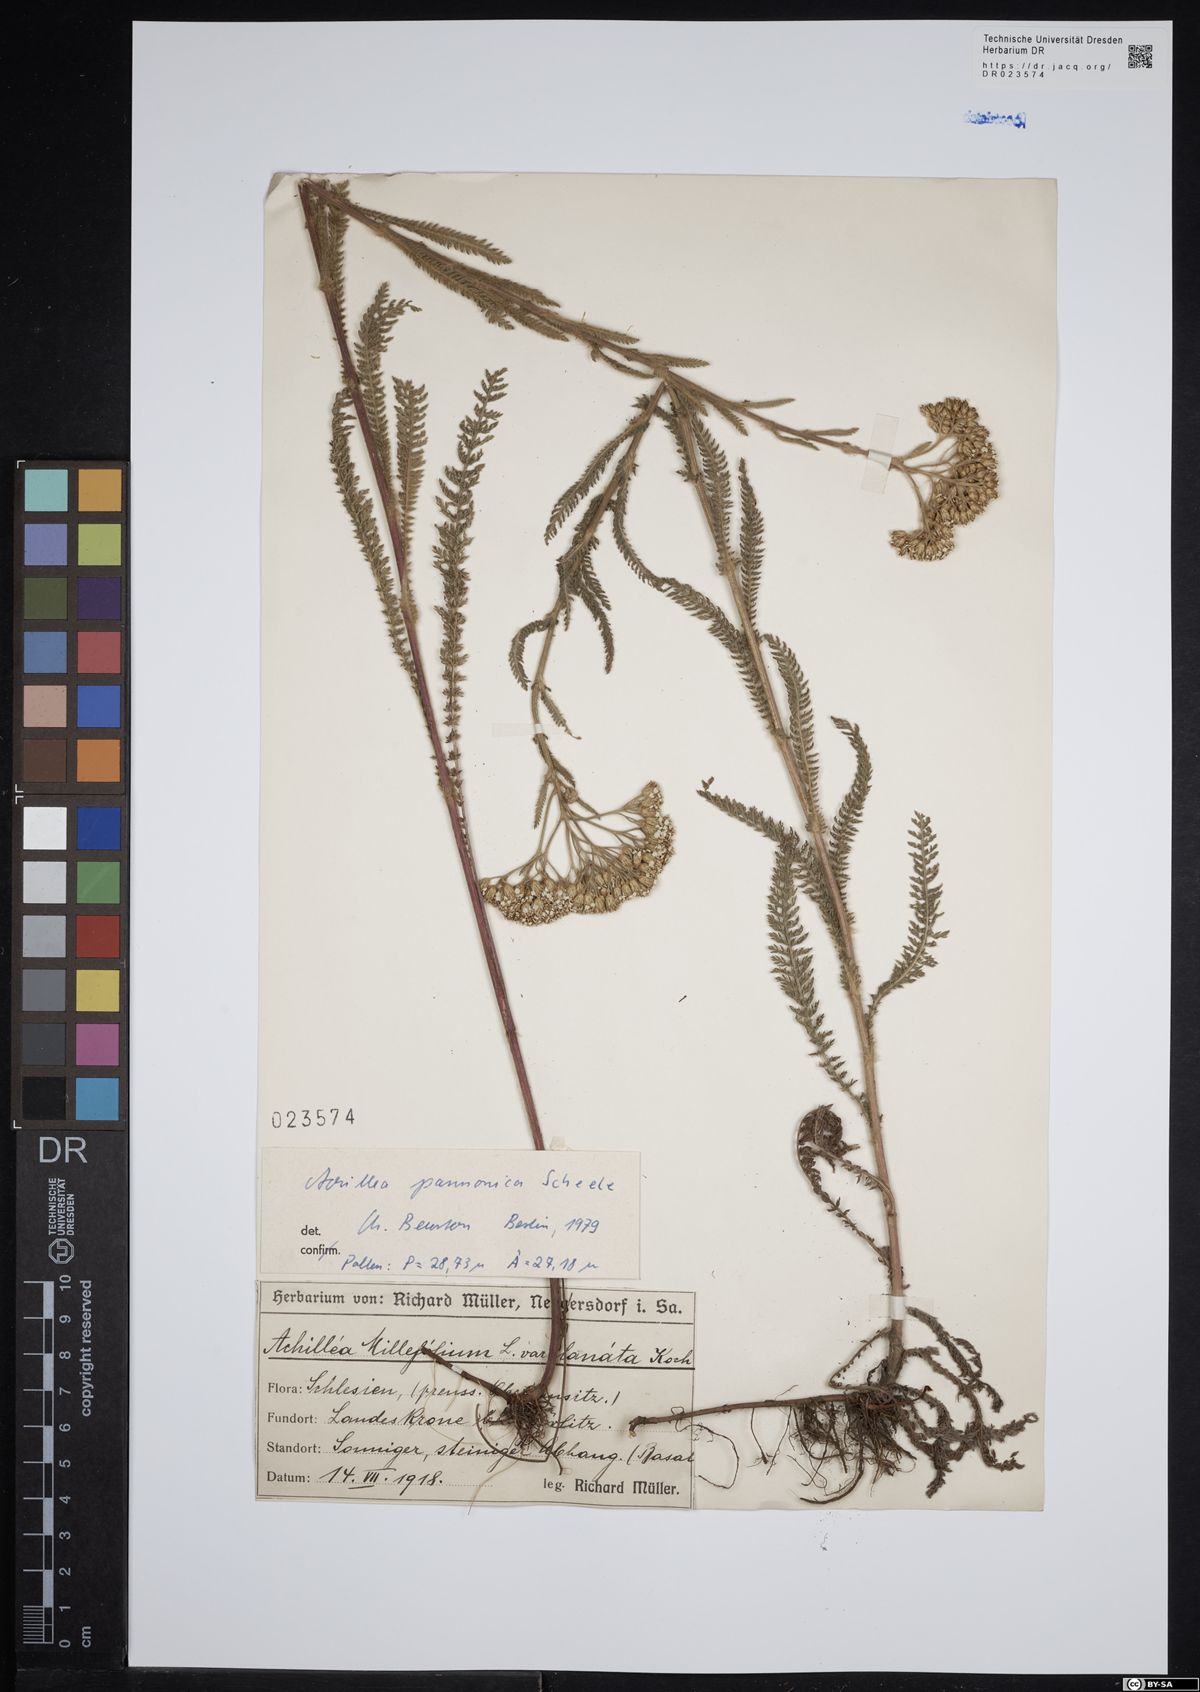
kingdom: Plantae
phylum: Tracheophyta
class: Magnoliopsida
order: Asterales
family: Asteraceae
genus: Achillea
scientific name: Achillea pannonica
